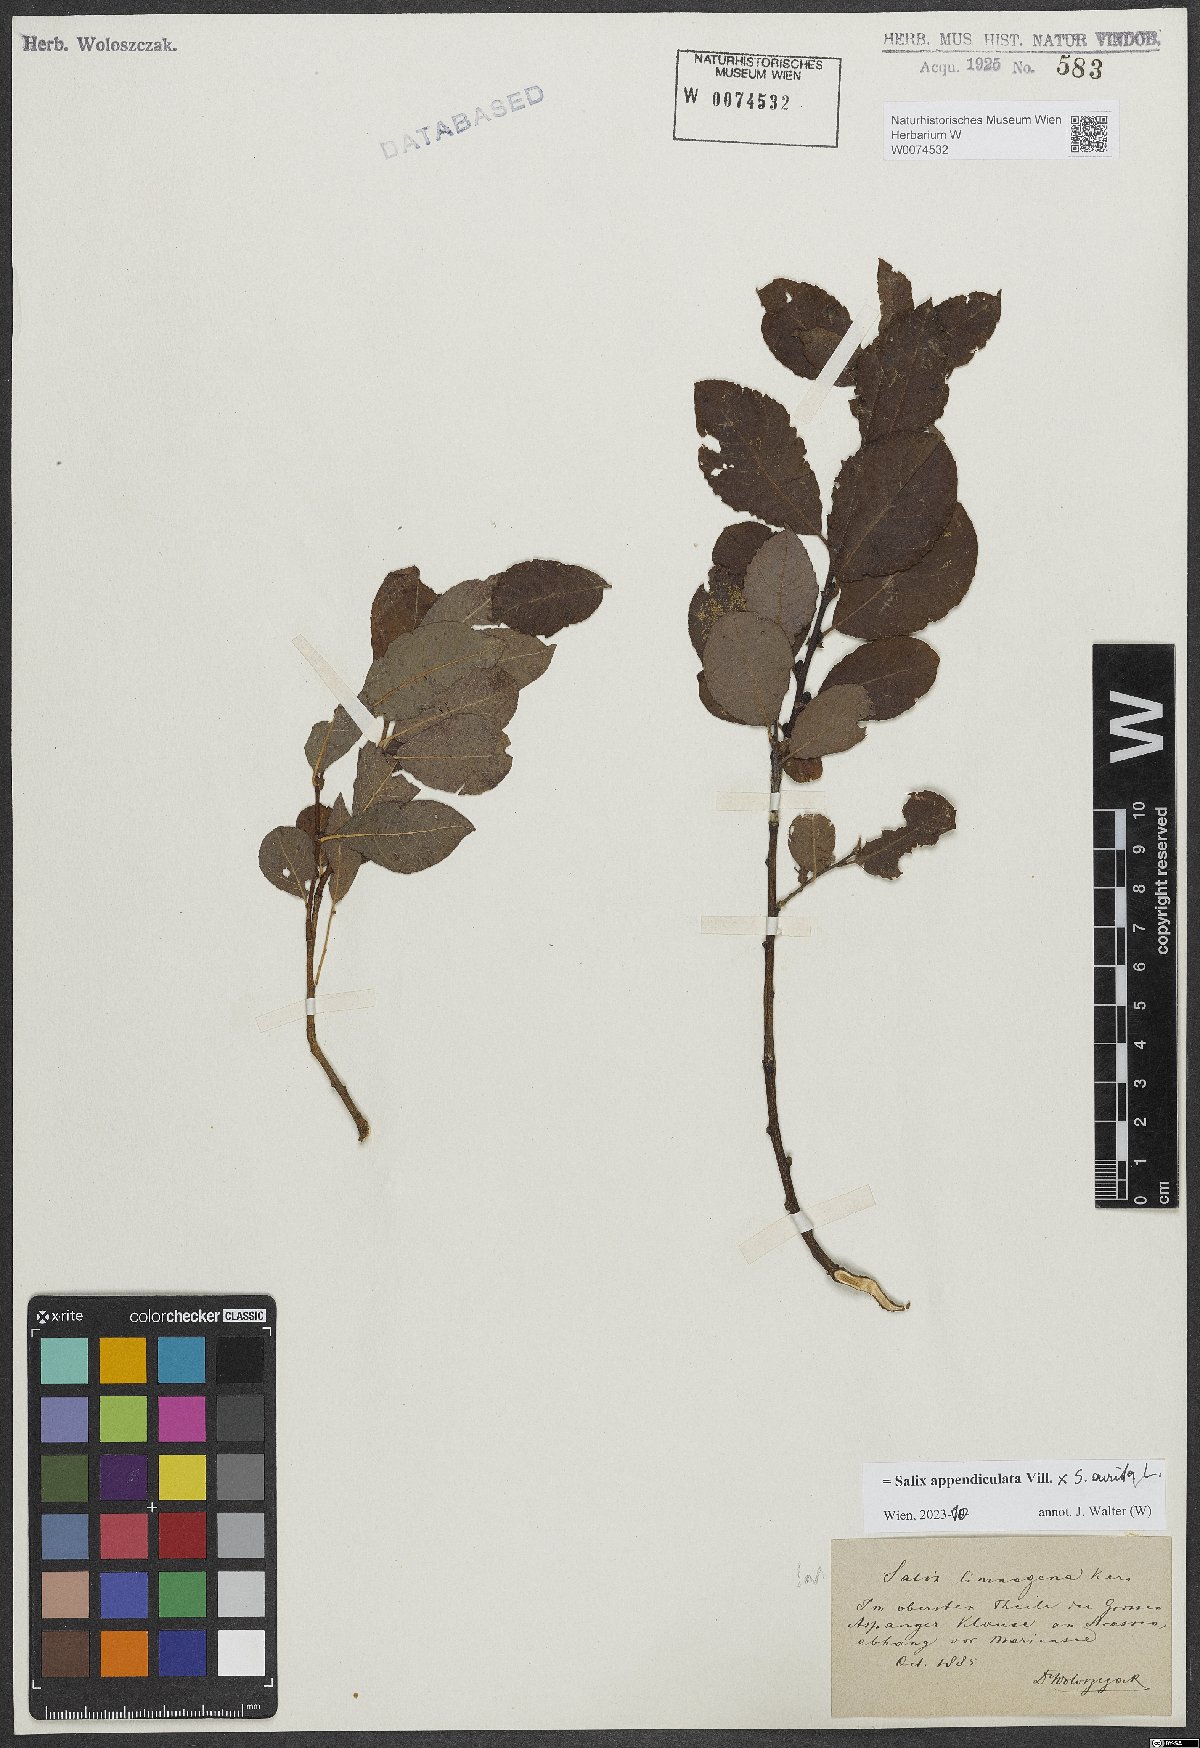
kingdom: Plantae
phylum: Tracheophyta
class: Magnoliopsida
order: Malpighiales
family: Salicaceae
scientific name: Salicaceae
